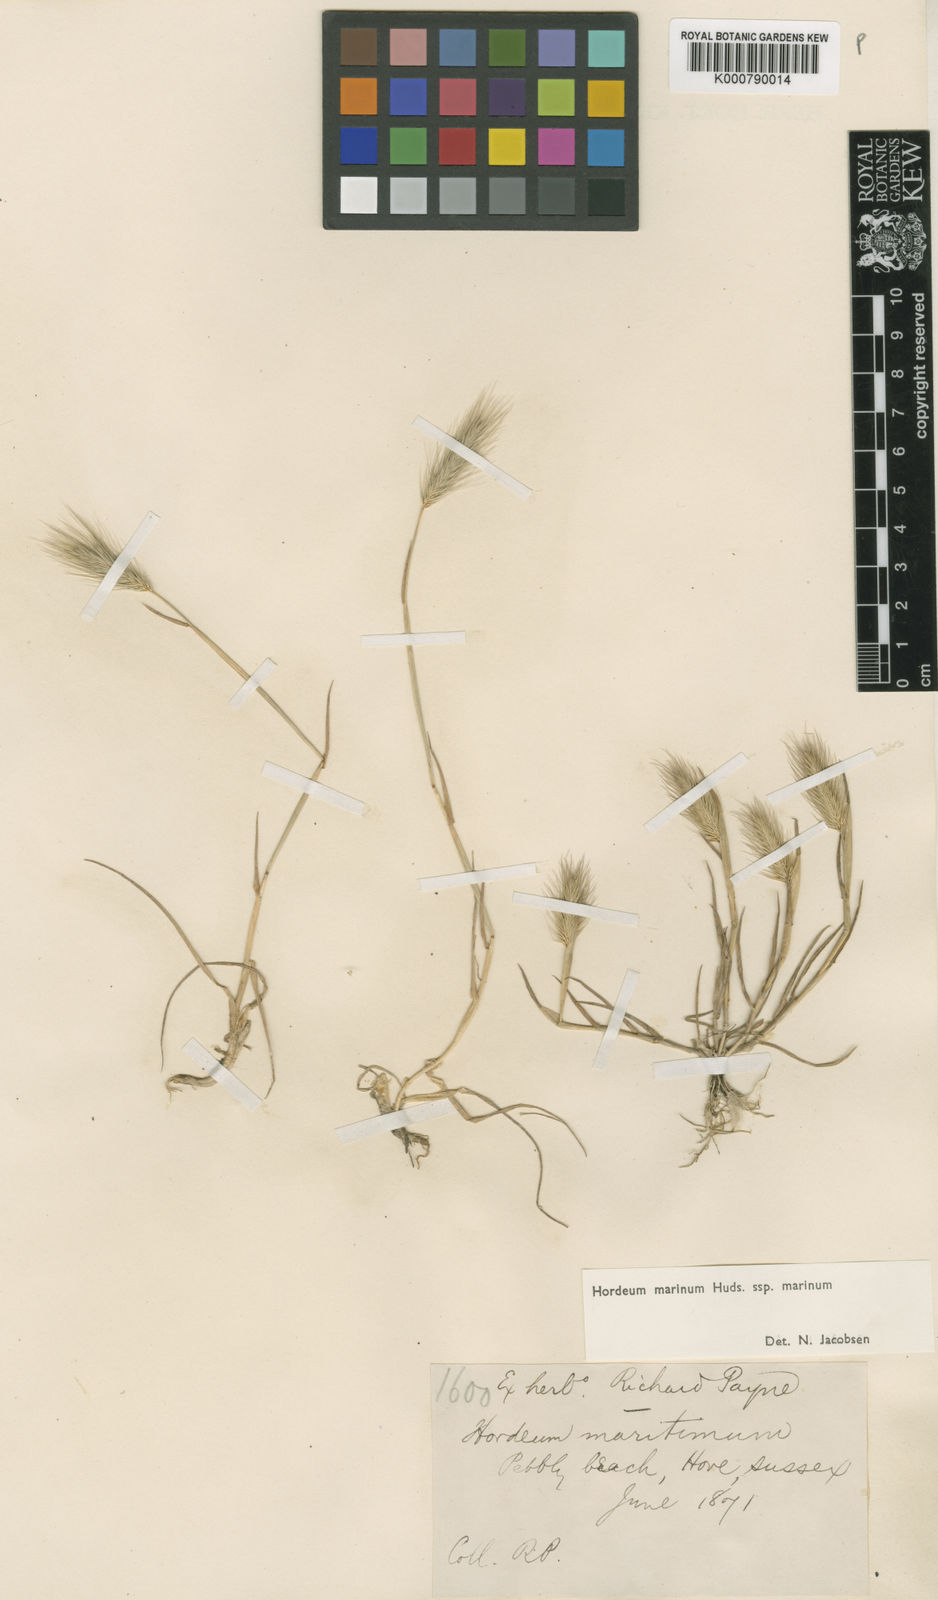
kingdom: Plantae
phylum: Tracheophyta
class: Liliopsida
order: Poales
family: Poaceae
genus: Hordeum
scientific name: Hordeum marinum
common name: Sea barley
